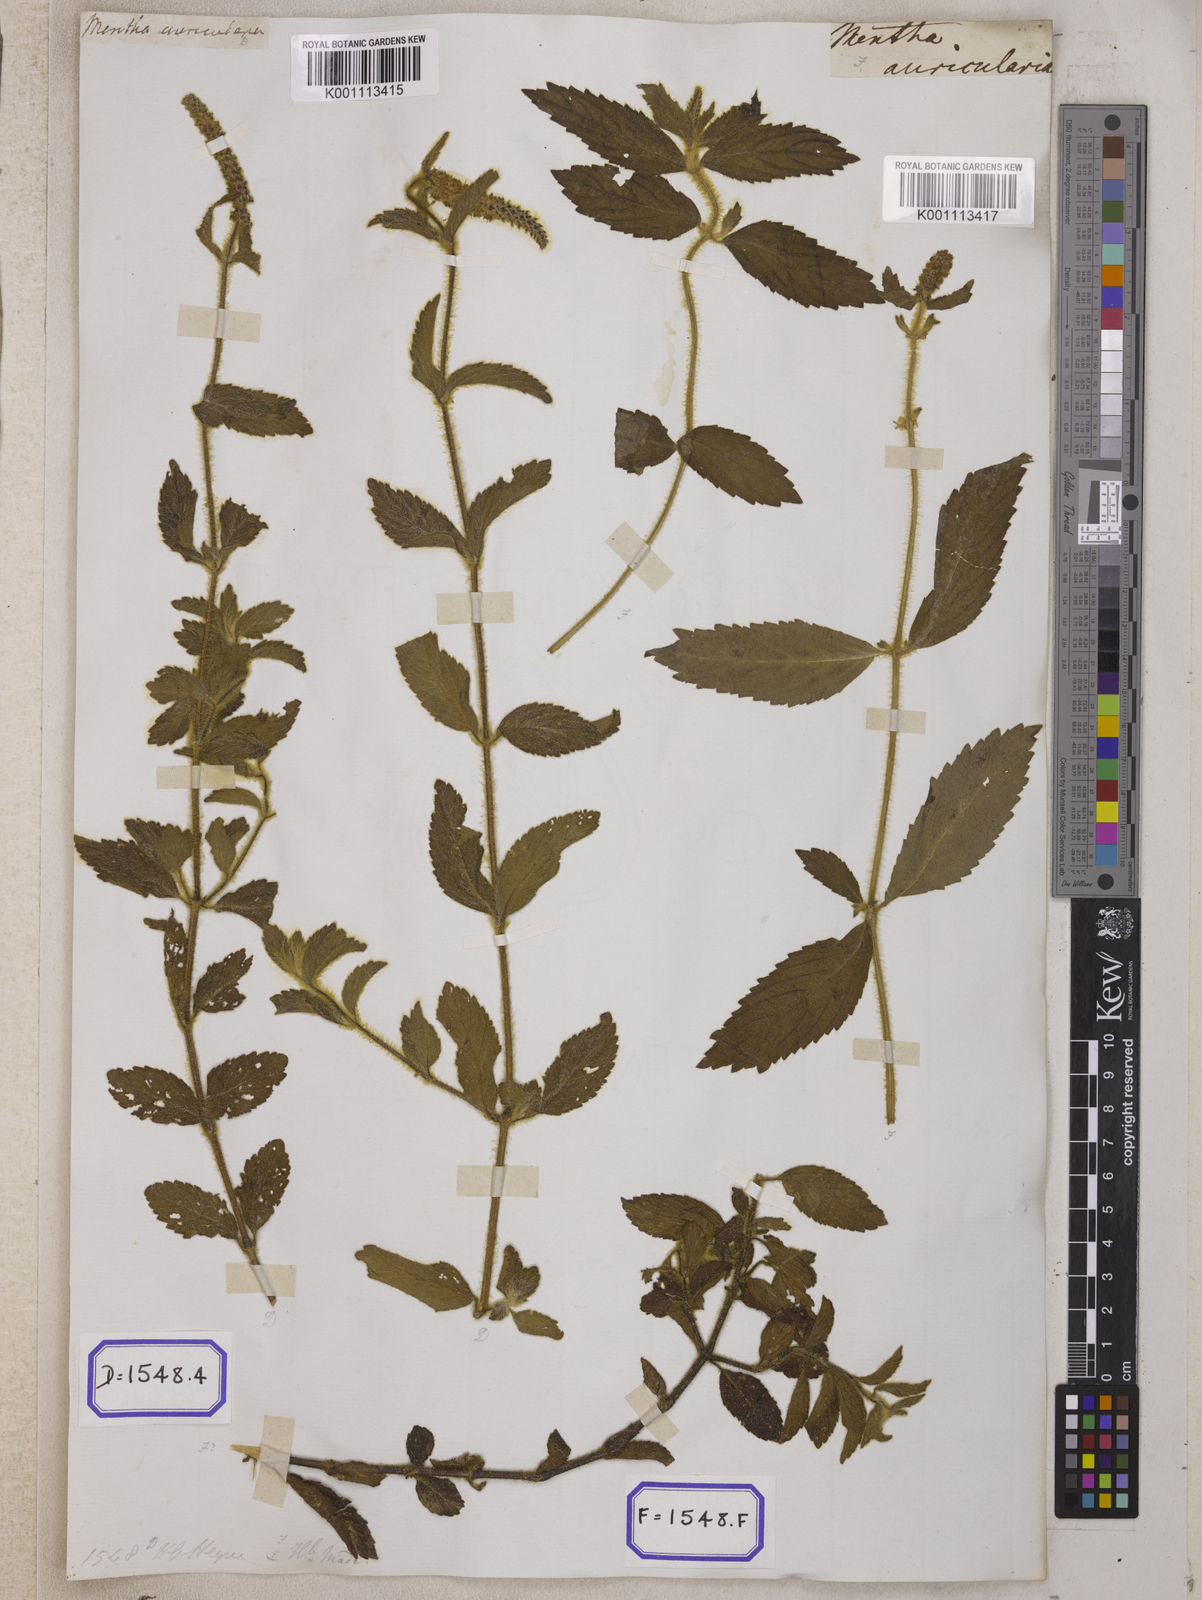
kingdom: Plantae
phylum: Tracheophyta
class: Magnoliopsida
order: Lamiales
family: Lamiaceae
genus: Pogostemon
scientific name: Pogostemon auricularius
